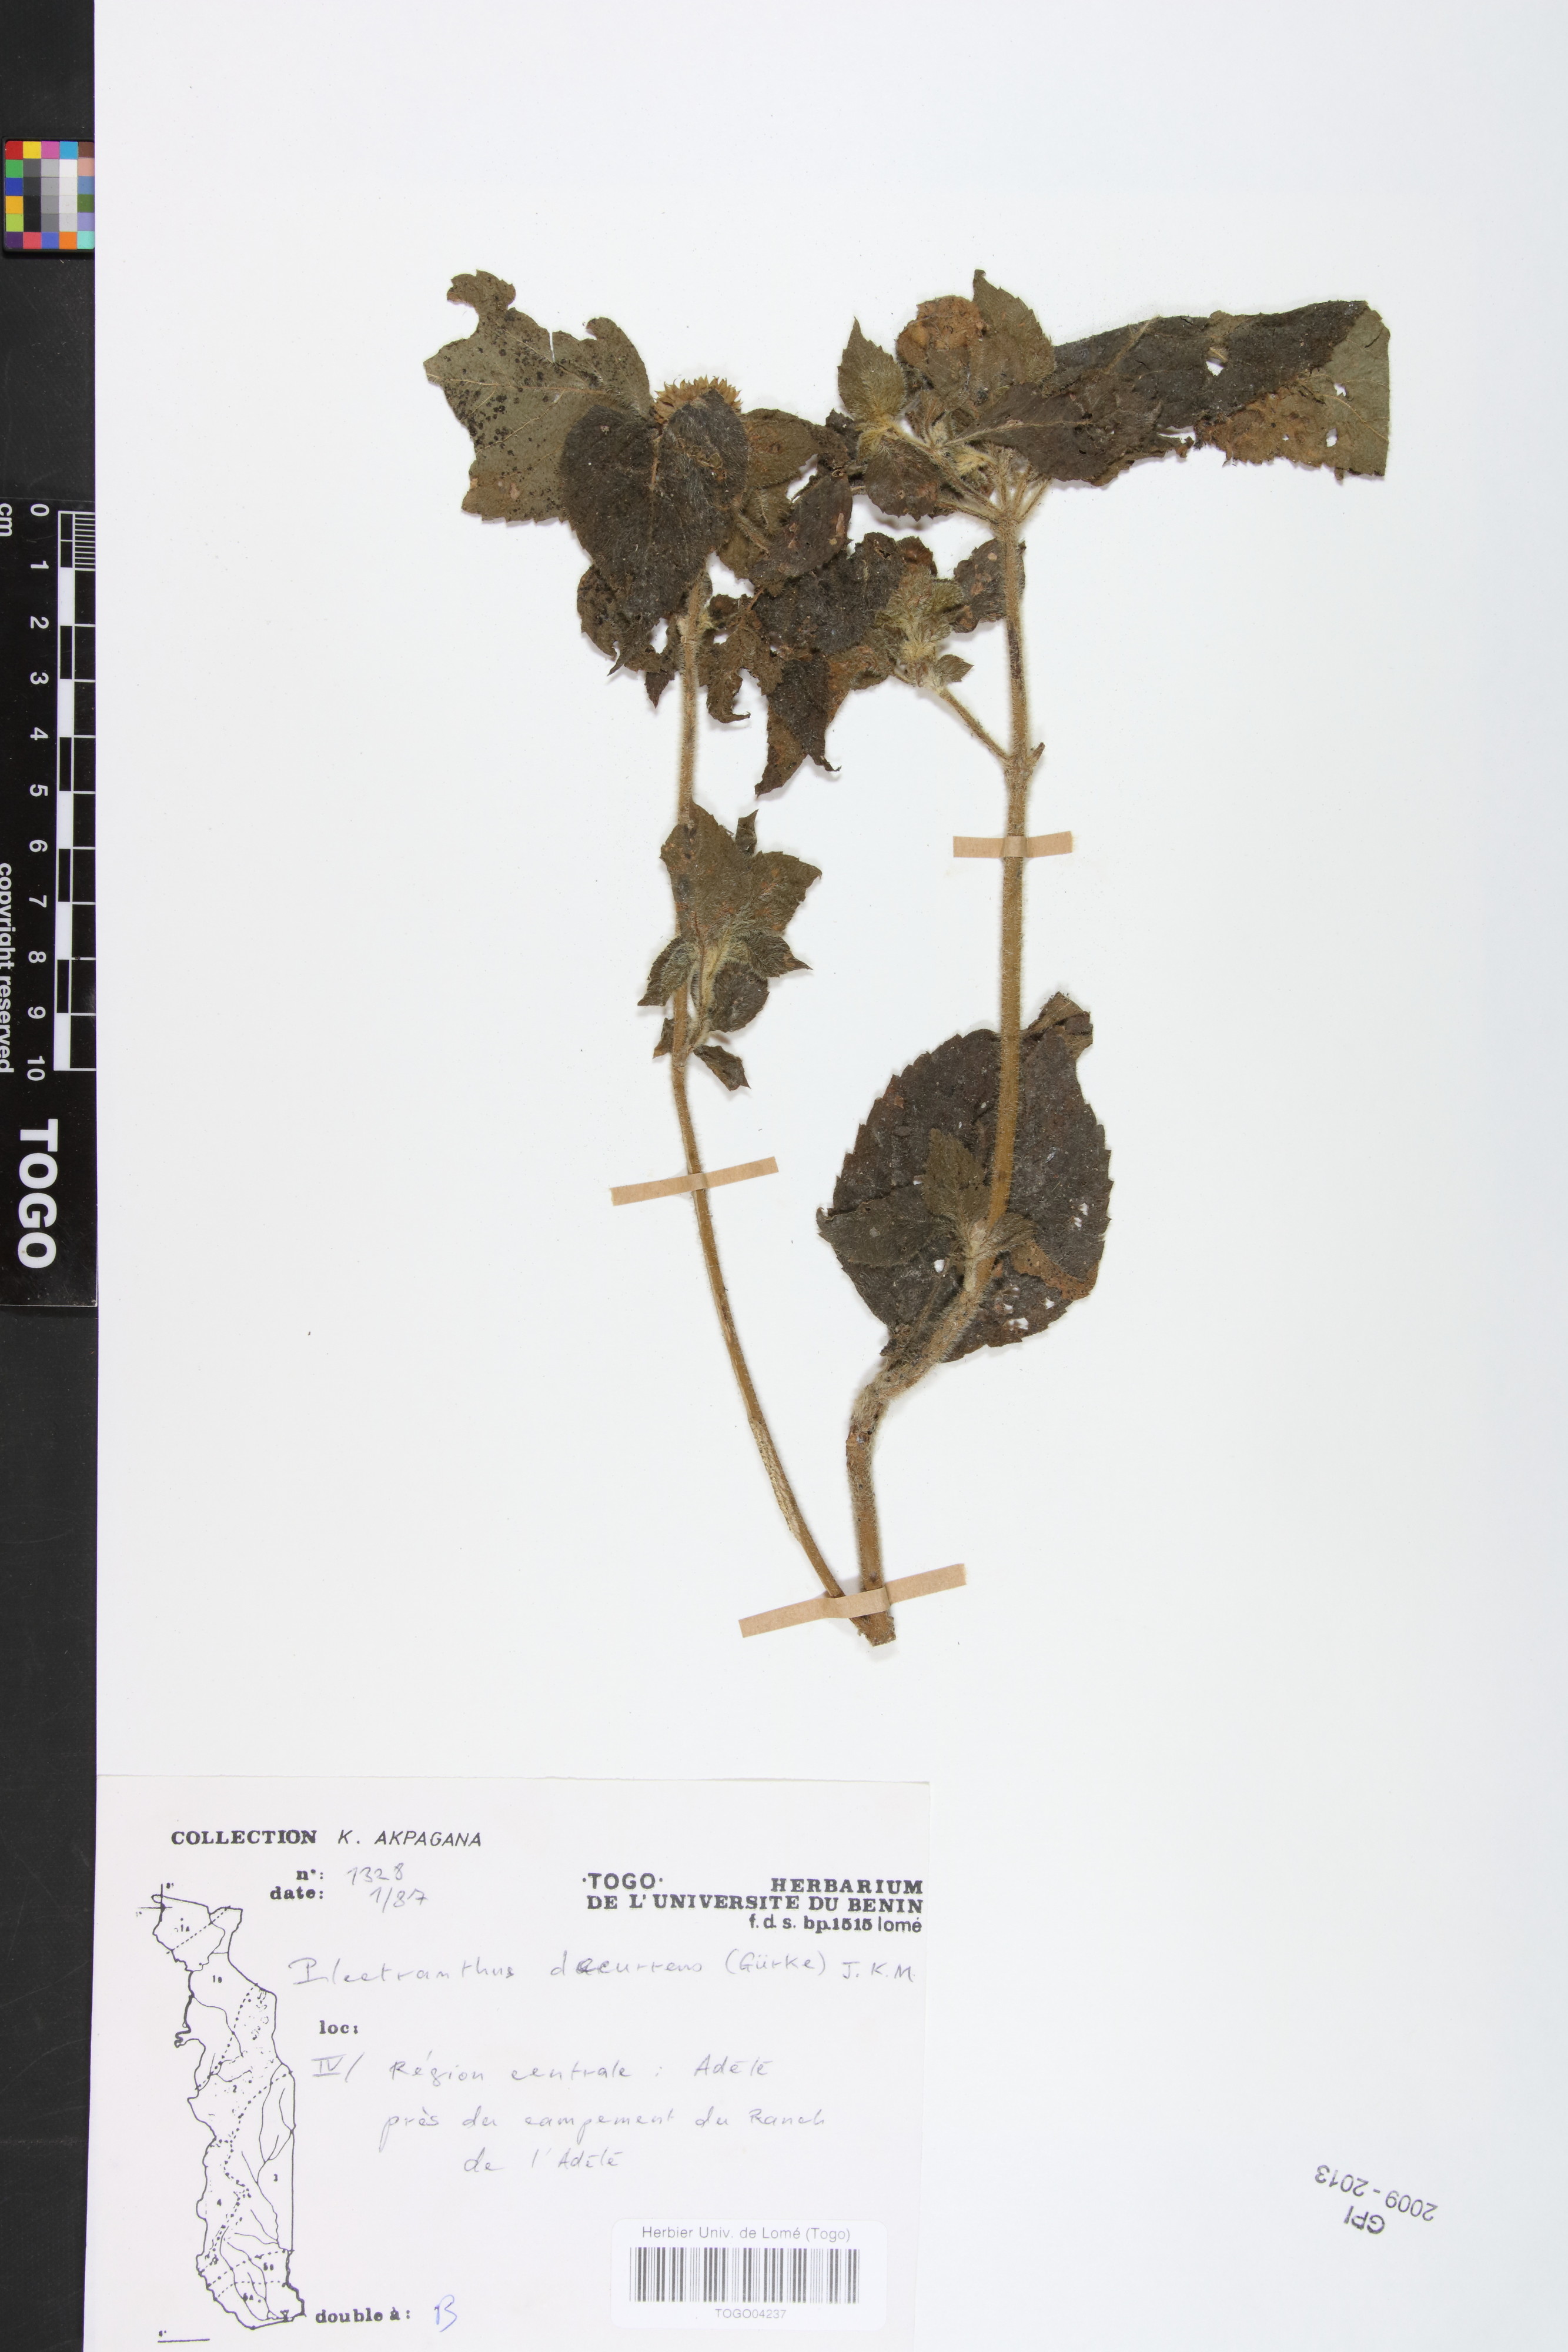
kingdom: Plantae
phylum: Tracheophyta
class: Magnoliopsida
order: Lamiales
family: Lamiaceae
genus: Coleus
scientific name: Coleus decurrens
